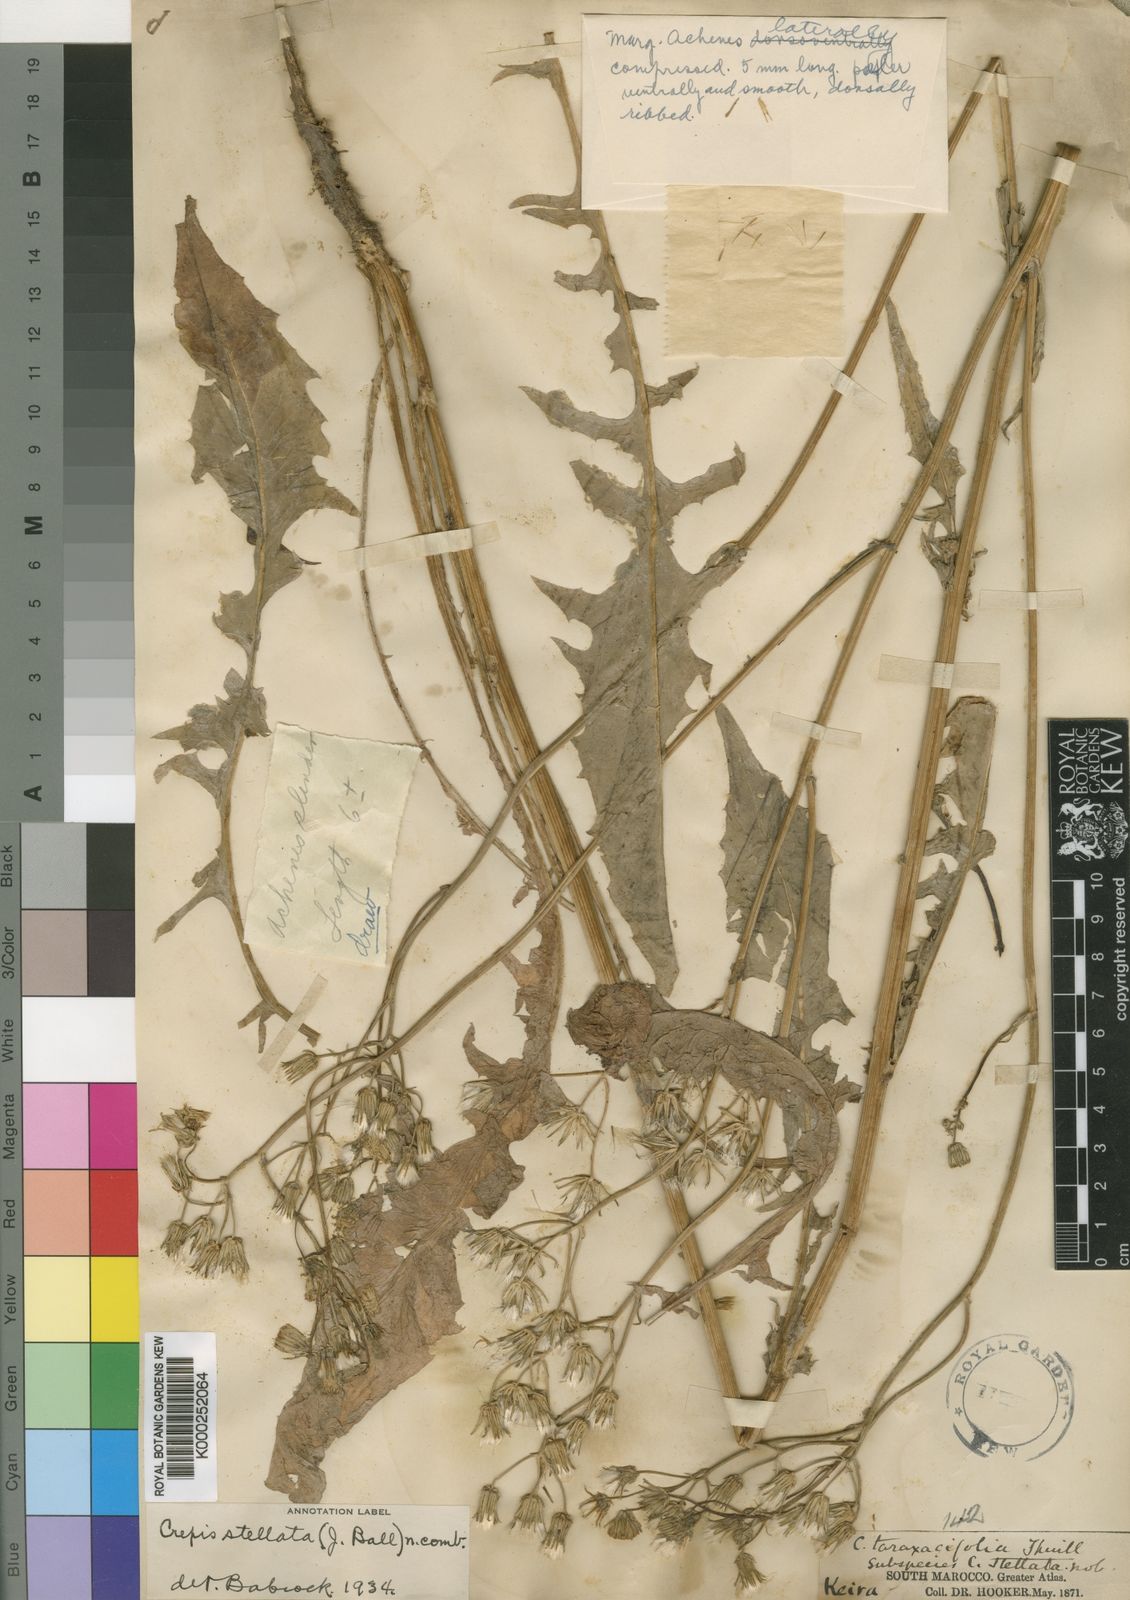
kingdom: Plantae
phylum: Tracheophyta
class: Magnoliopsida
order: Asterales
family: Asteraceae
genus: Crepis
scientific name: Crepis vesicaria
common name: Beaked hawksbeard
